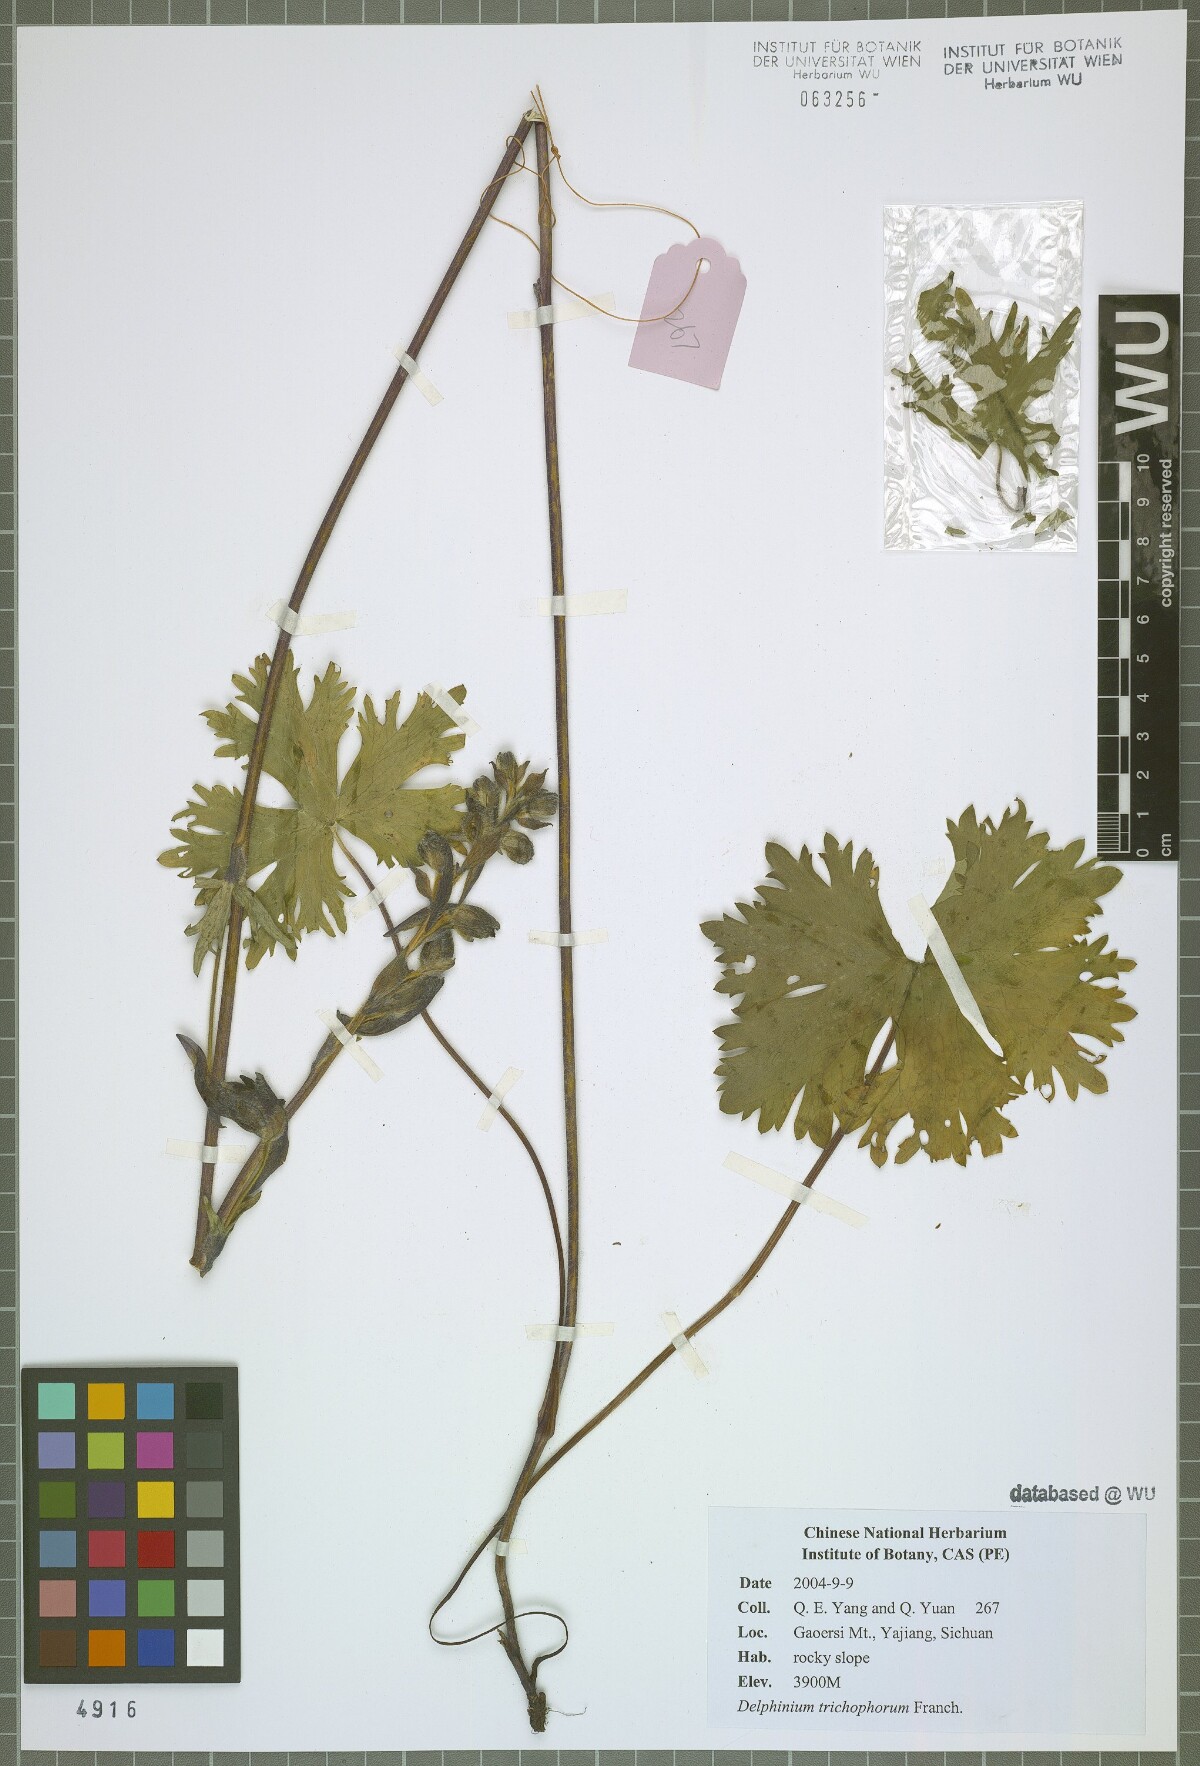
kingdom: Plantae
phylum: Tracheophyta
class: Magnoliopsida
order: Ranunculales
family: Ranunculaceae
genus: Delphinium
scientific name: Delphinium trichophorum
